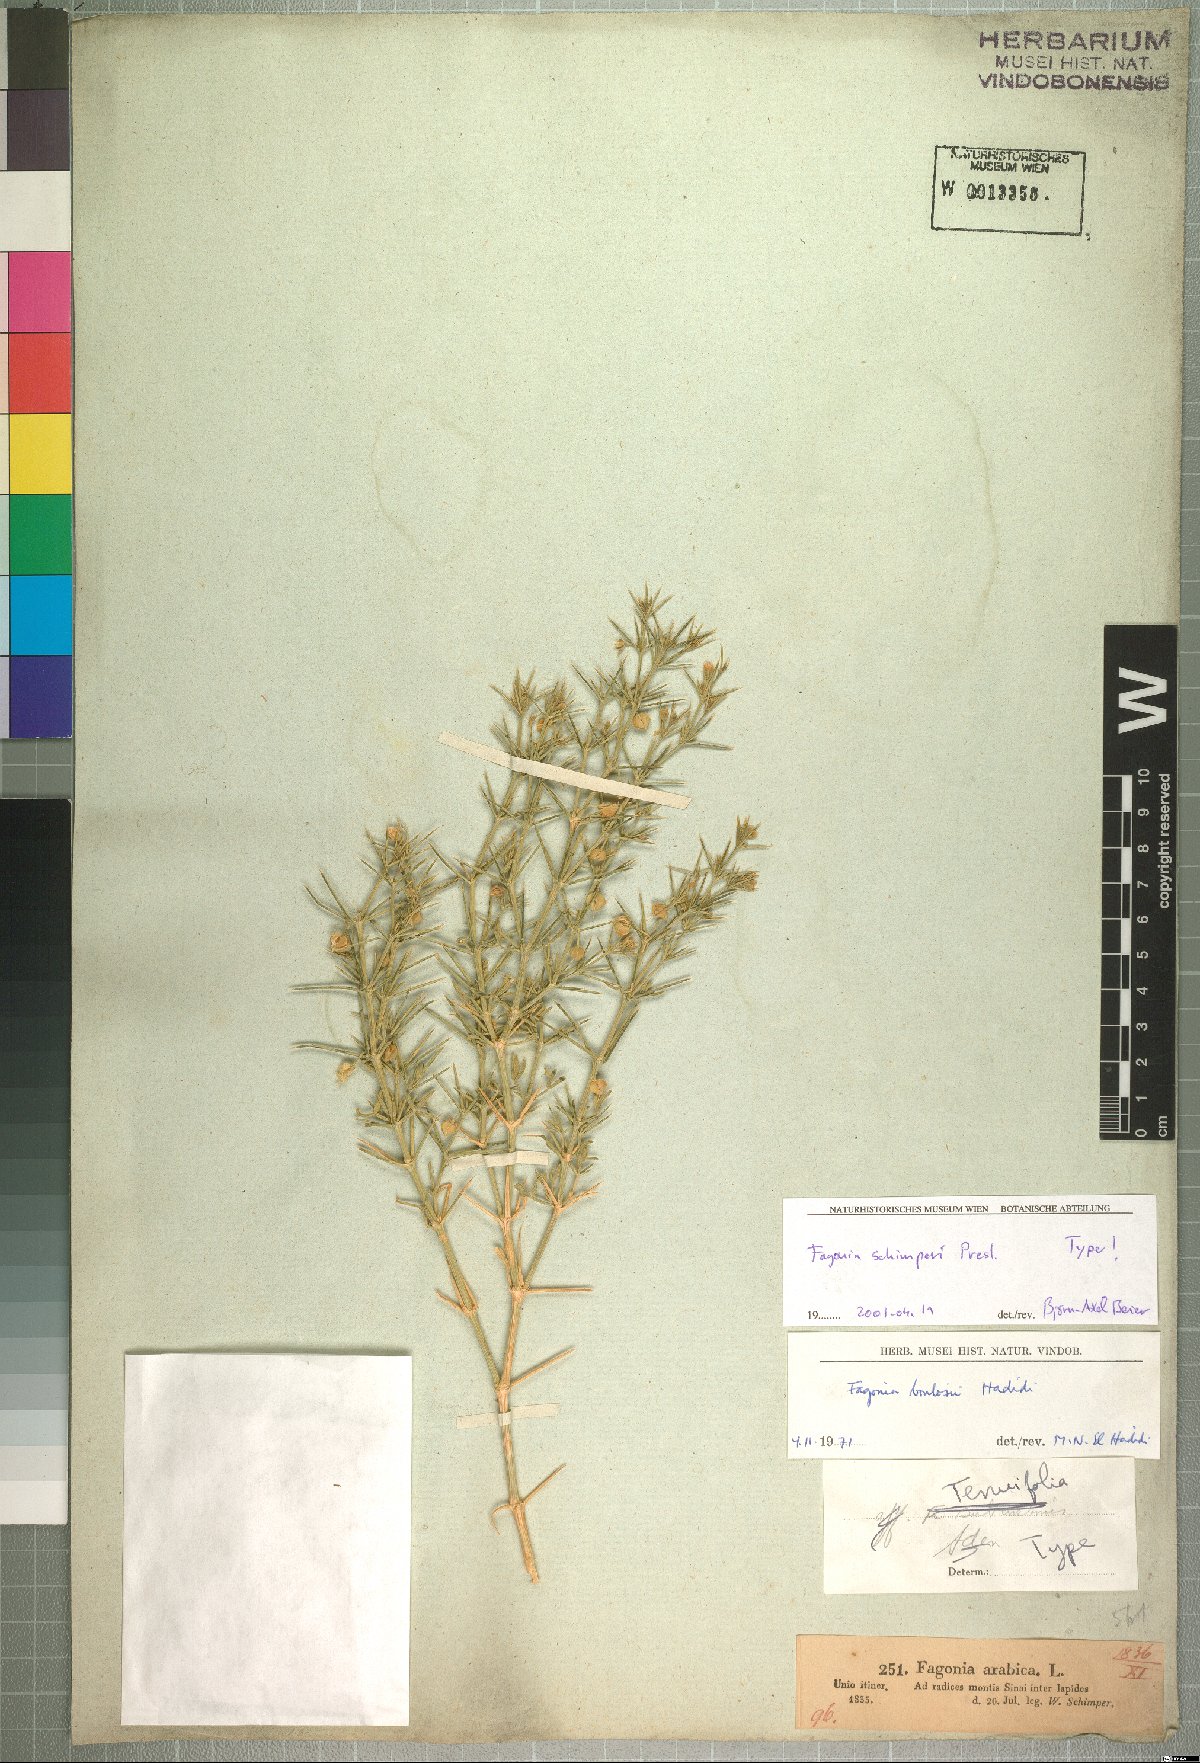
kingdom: Plantae
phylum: Tracheophyta
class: Magnoliopsida
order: Zygophyllales
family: Zygophyllaceae
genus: Fagonia
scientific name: Fagonia bruguieri
